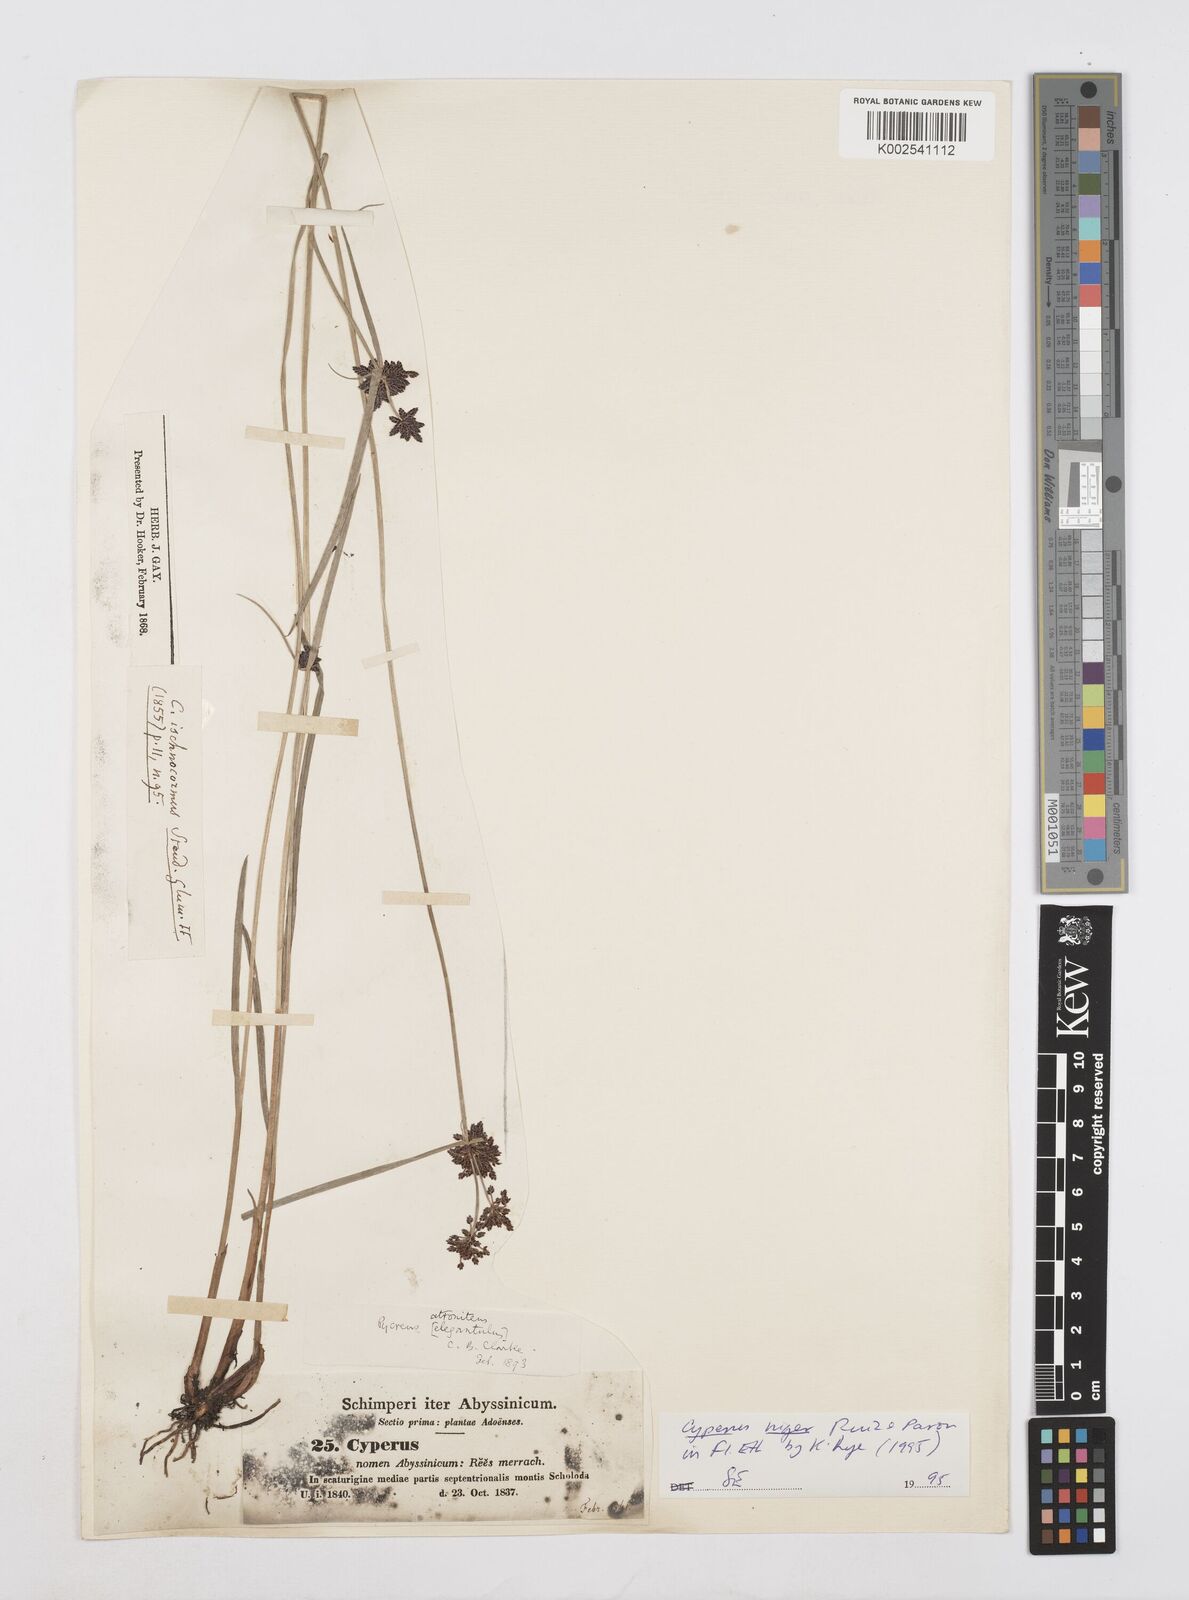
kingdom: Plantae
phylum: Tracheophyta
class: Liliopsida
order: Poales
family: Cyperaceae
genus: Cyperus
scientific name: Cyperus elegantulus
